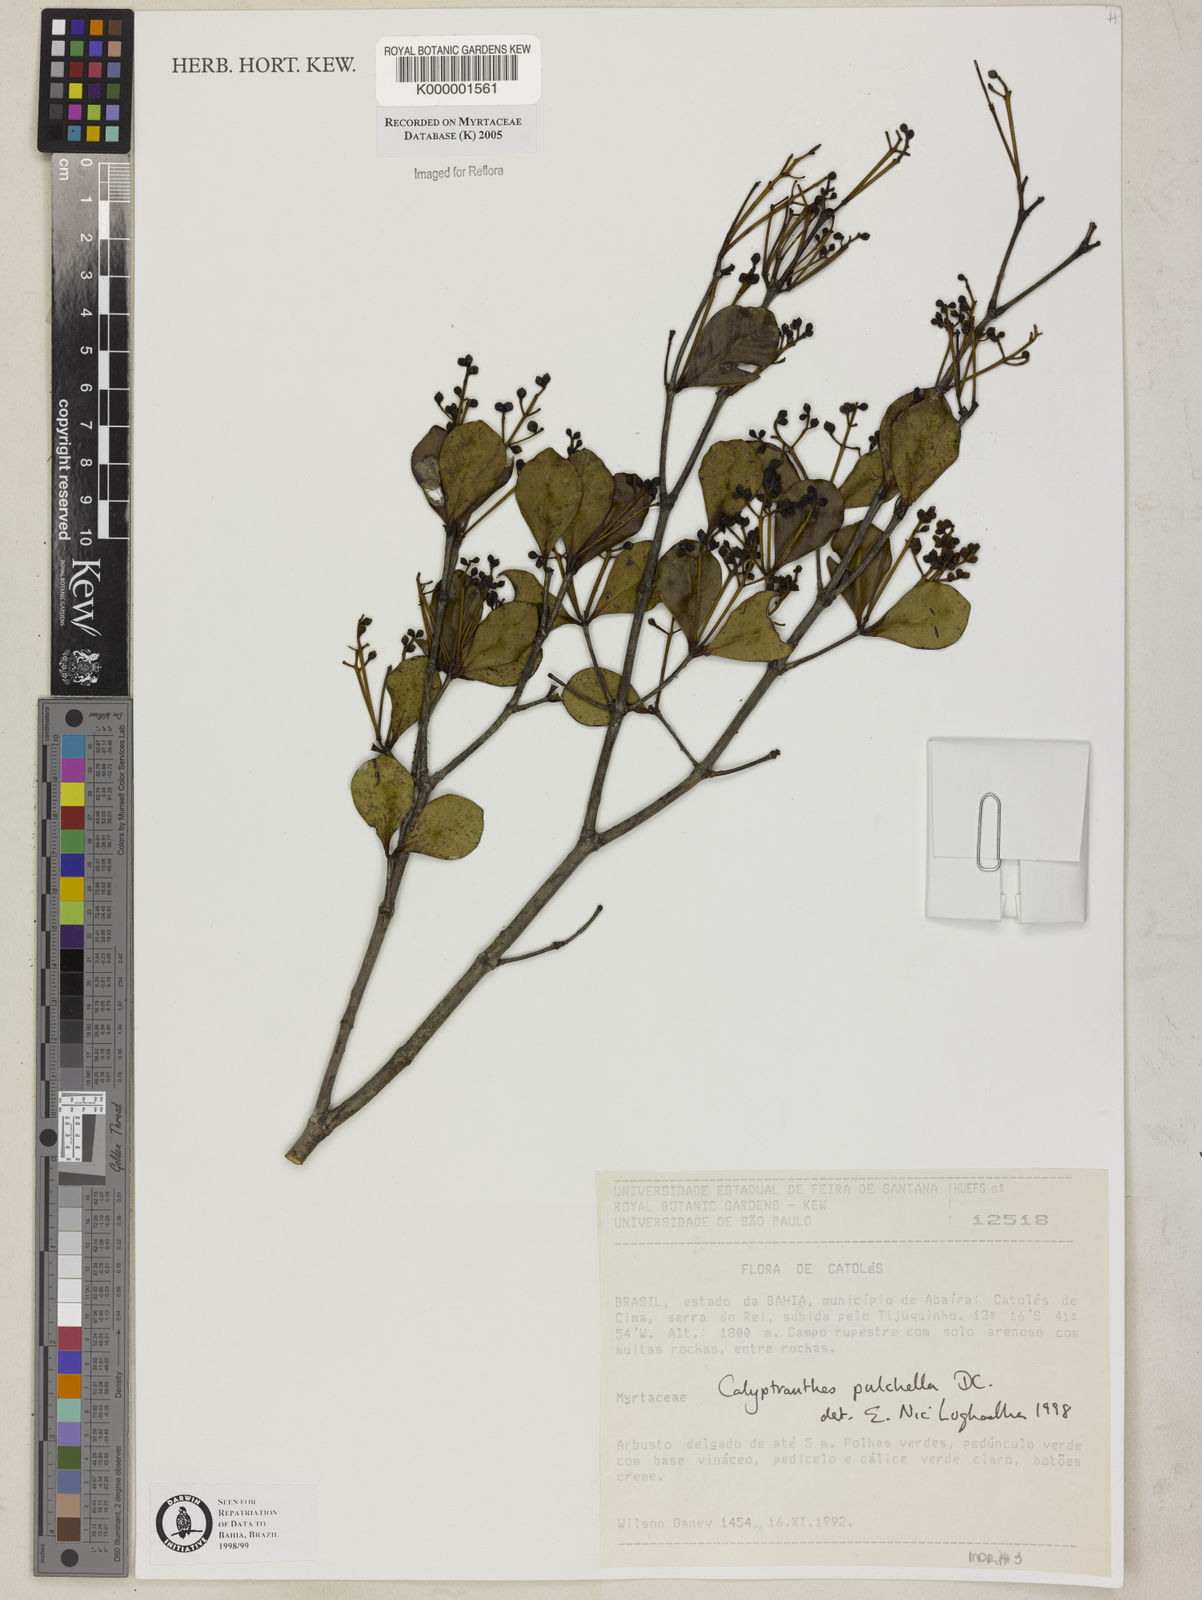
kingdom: Plantae
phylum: Tracheophyta
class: Magnoliopsida
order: Myrtales
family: Myrtaceae
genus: Myrcia
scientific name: Myrcia pulchella
